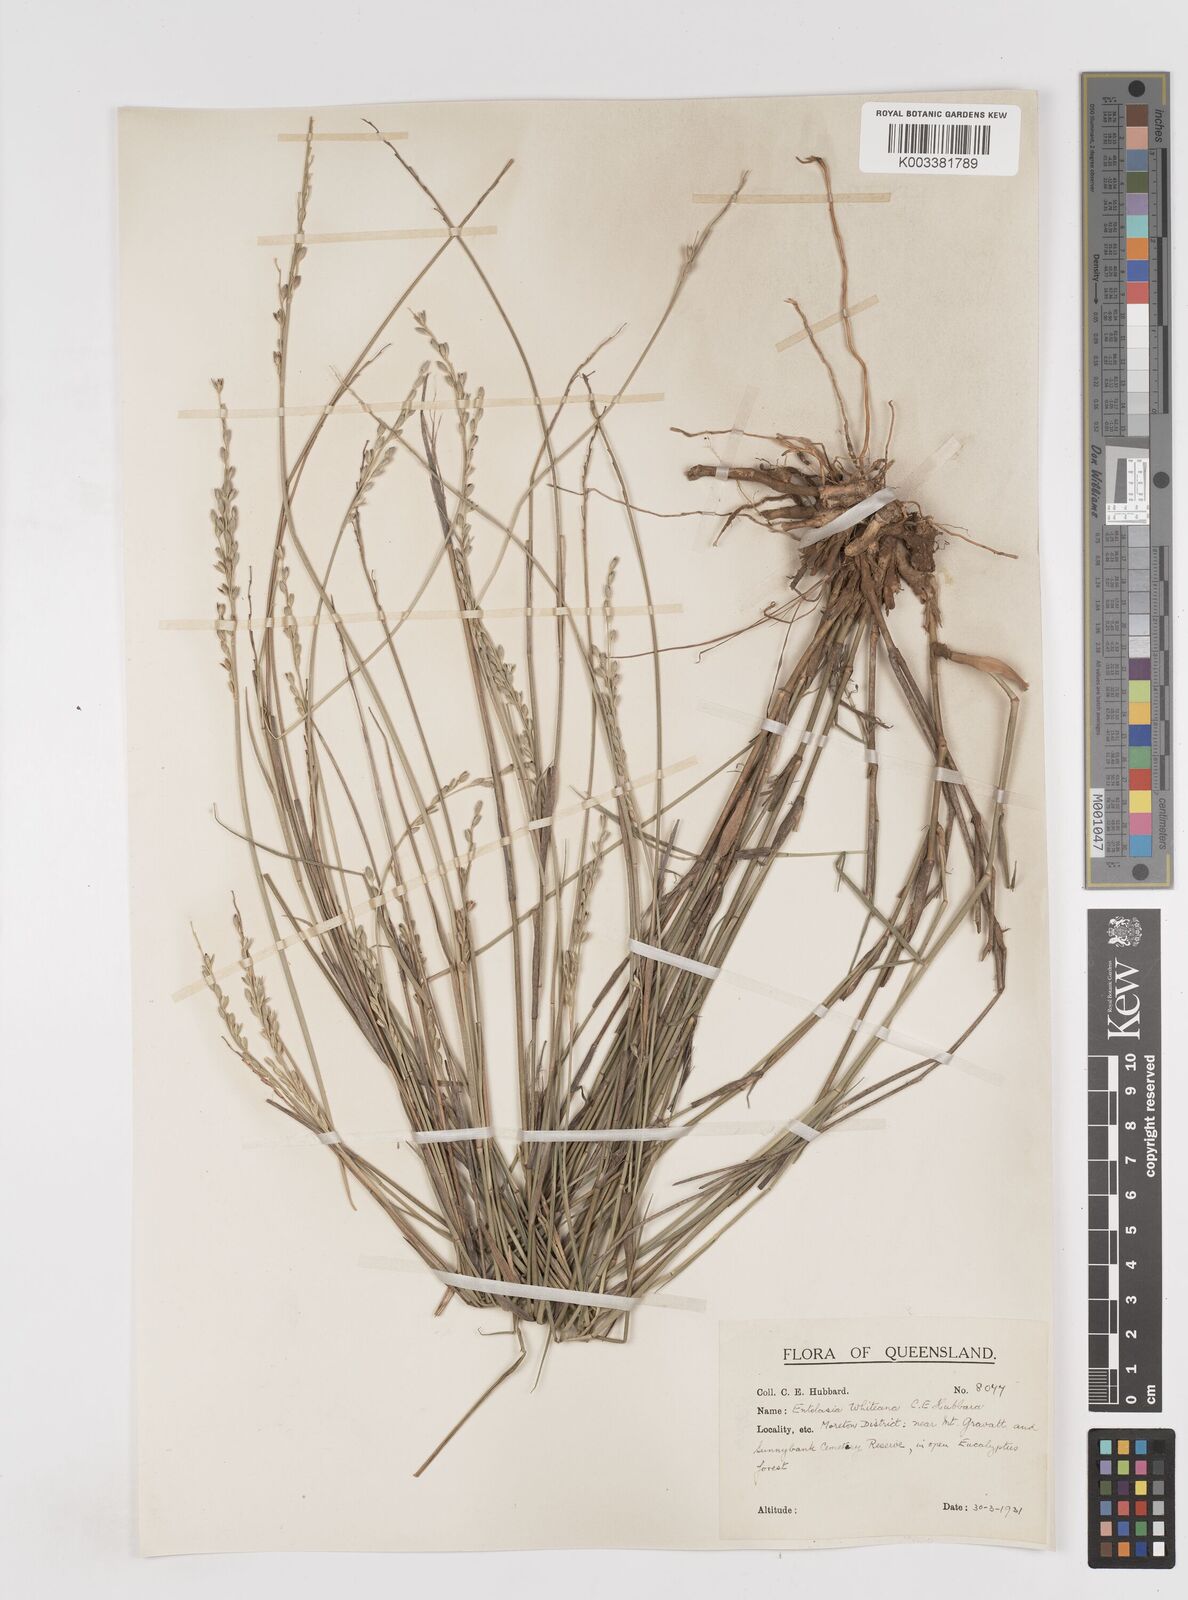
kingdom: Plantae
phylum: Tracheophyta
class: Liliopsida
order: Poales
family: Poaceae
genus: Entolasia
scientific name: Entolasia whiteana
